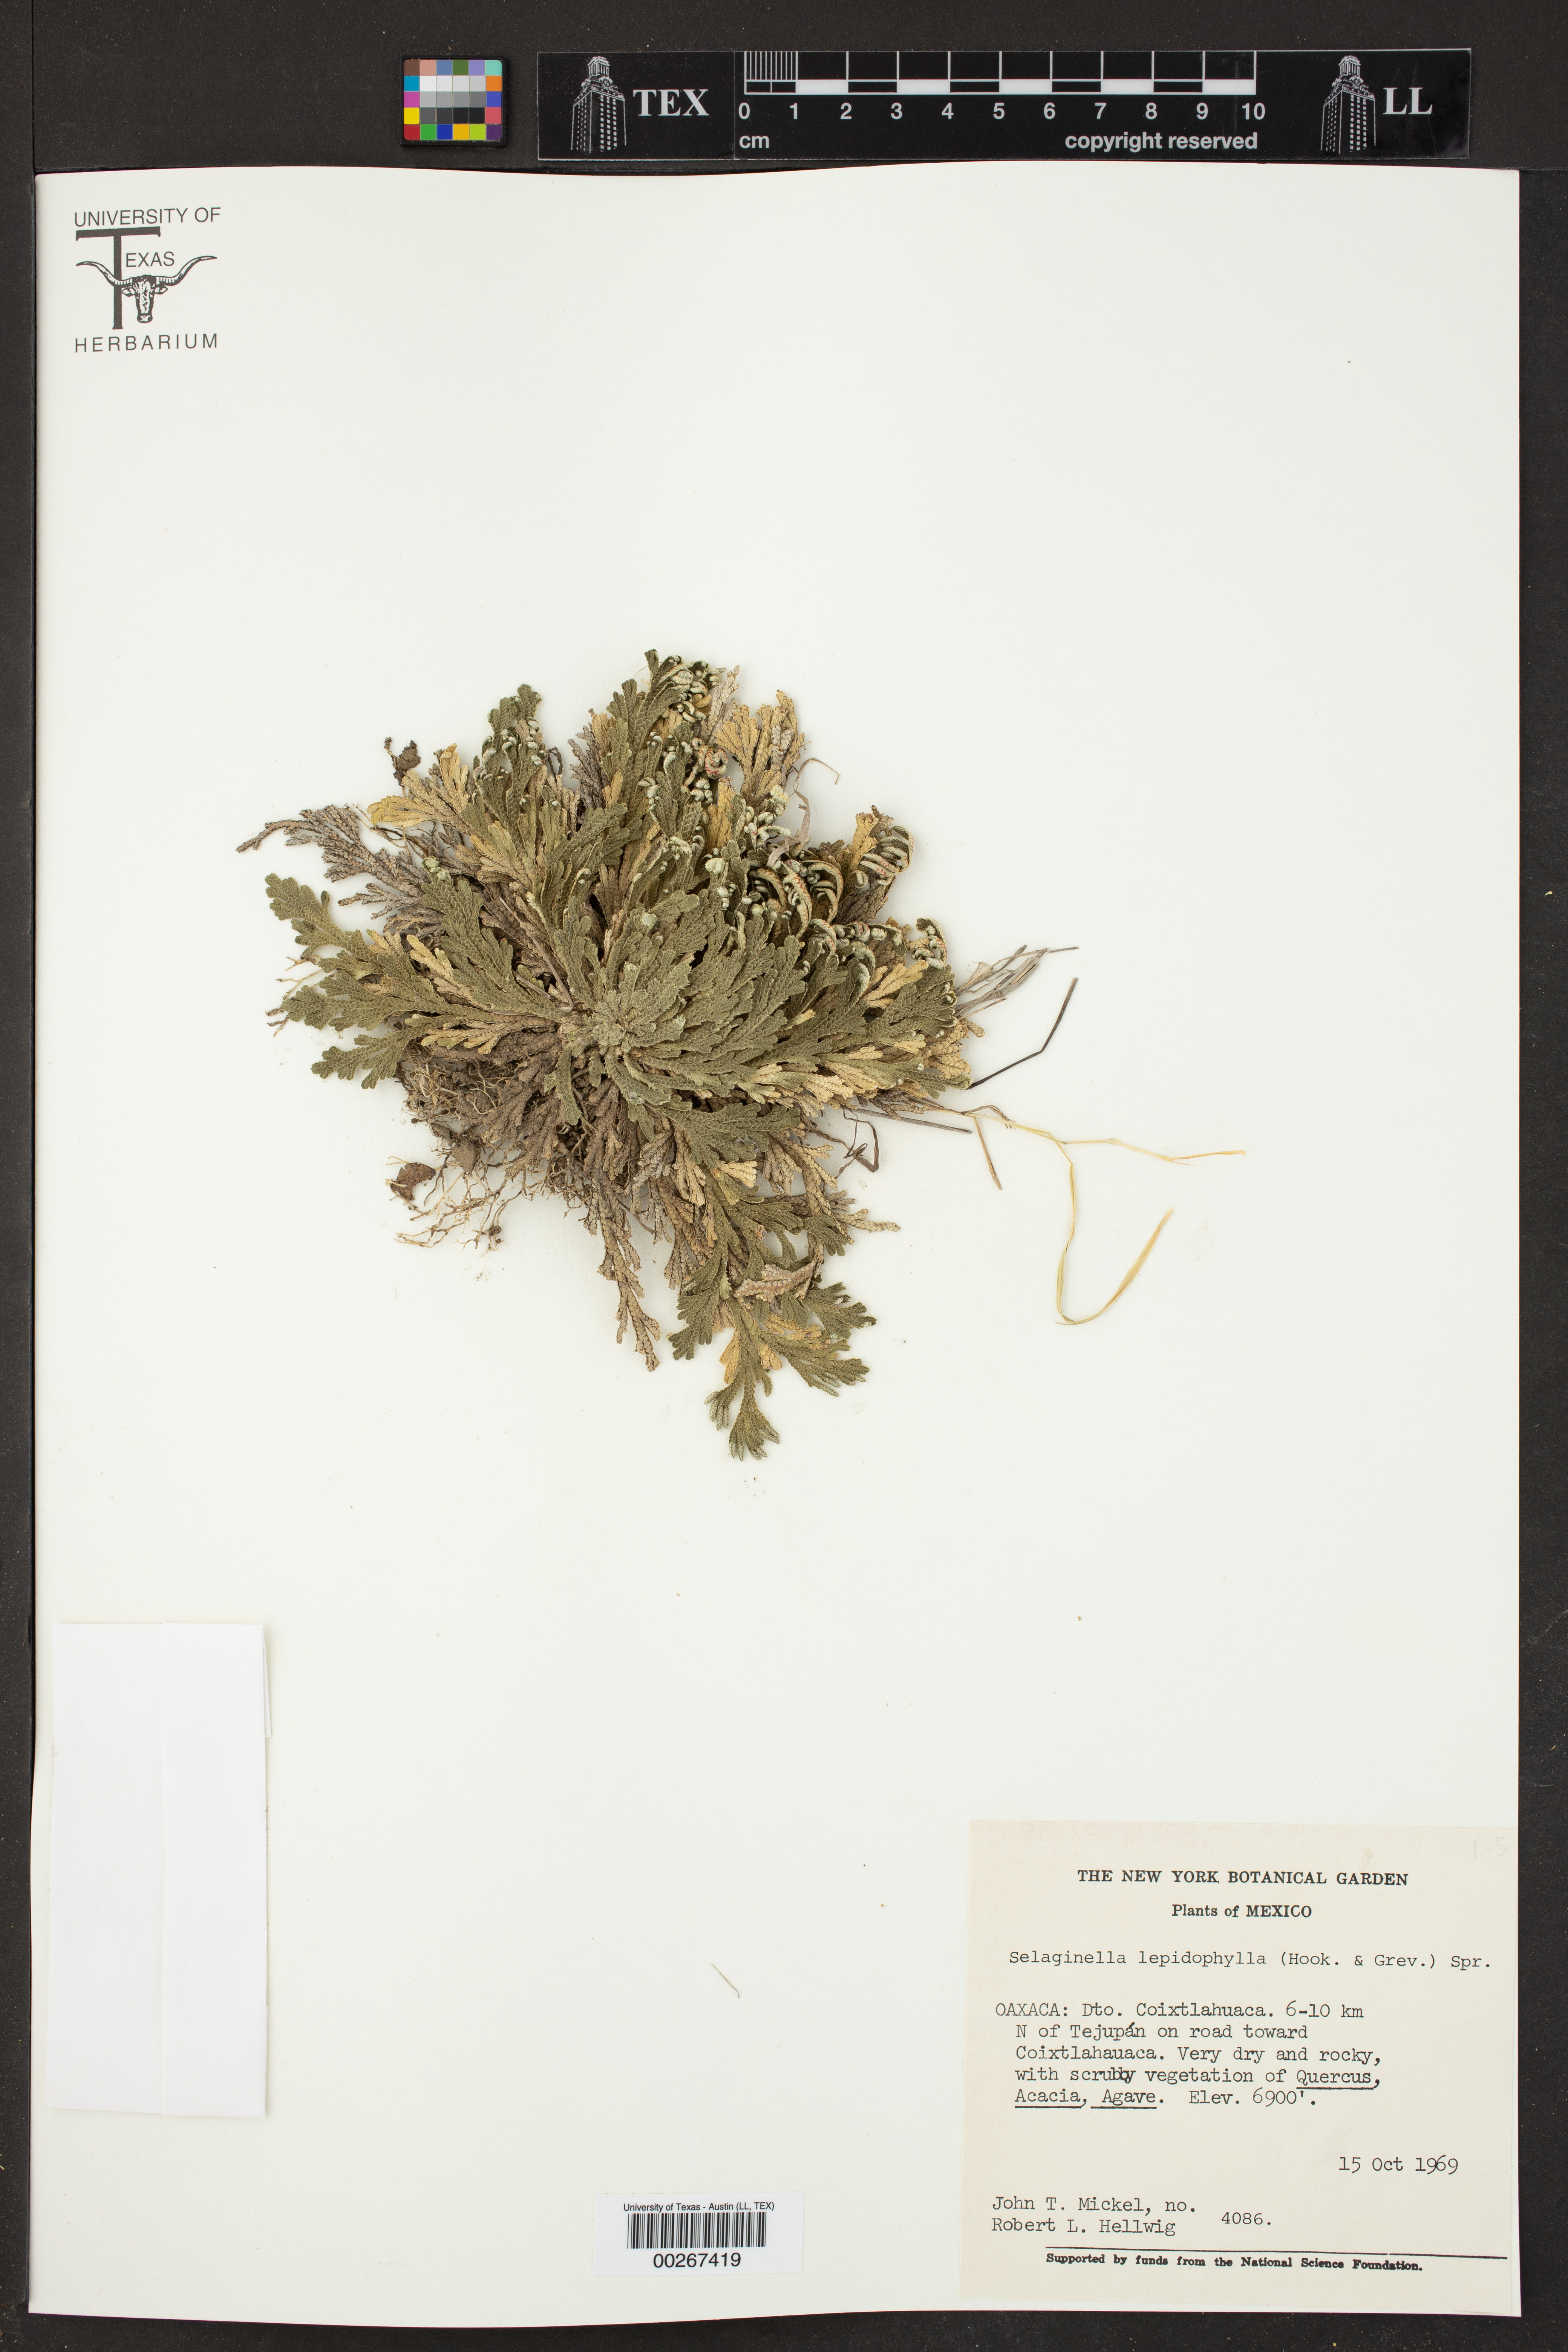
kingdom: Plantae
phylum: Tracheophyta
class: Lycopodiopsida
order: Selaginellales
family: Selaginellaceae
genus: Selaginella
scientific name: Selaginella lepidophylla
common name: Rose-of-jericho
